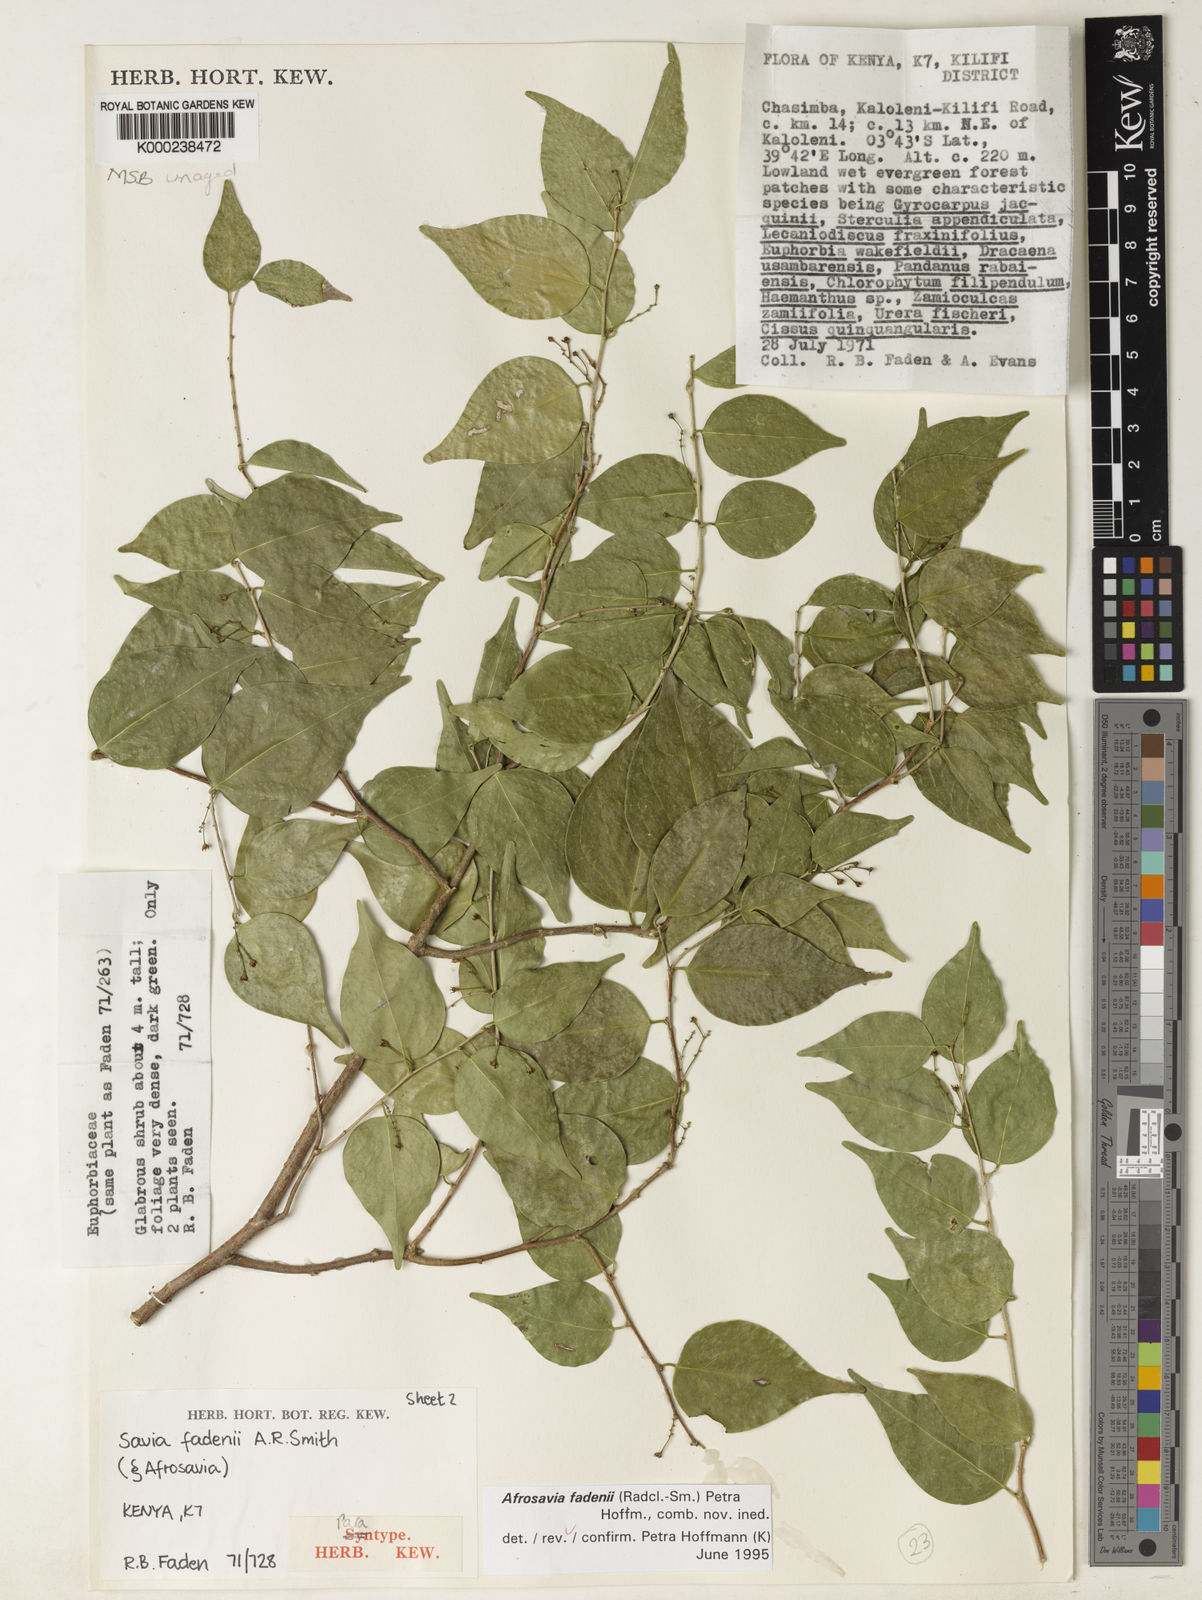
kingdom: Plantae
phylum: Tracheophyta
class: Magnoliopsida
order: Malpighiales
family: Phyllanthaceae
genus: Wielandia
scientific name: Wielandia fadenii
